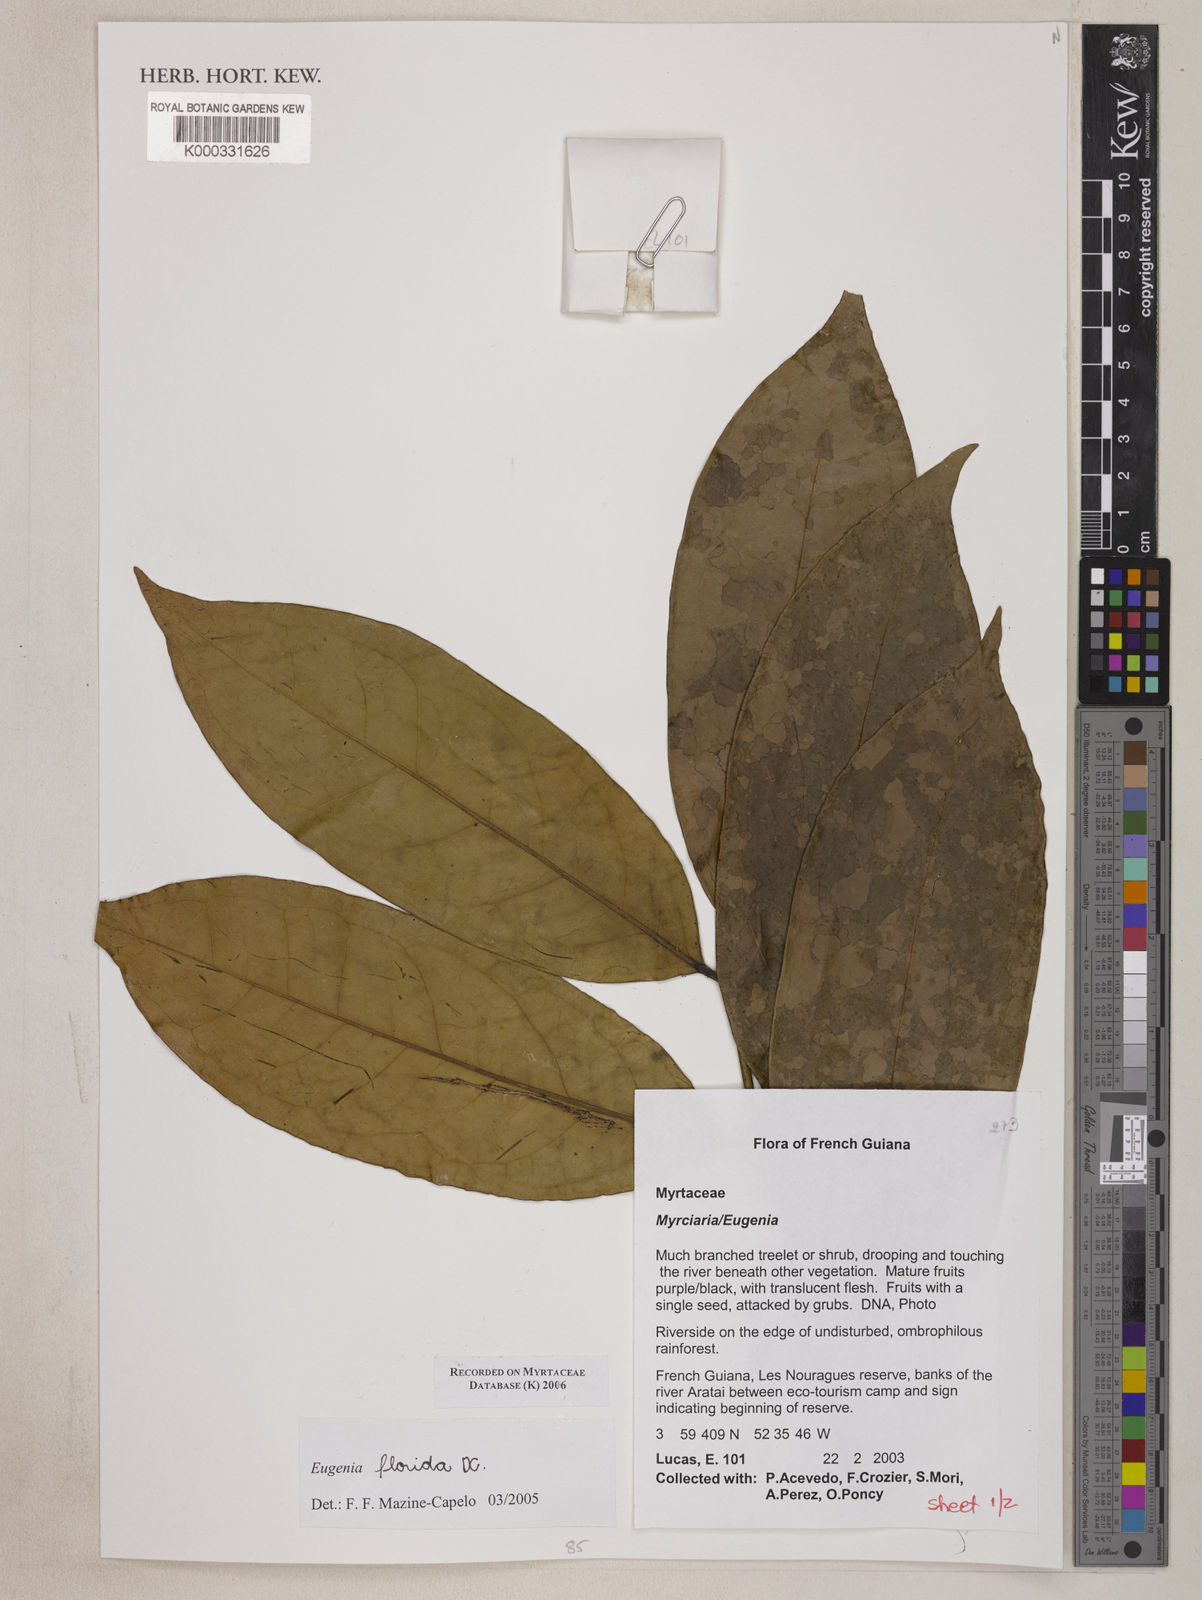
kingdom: Plantae
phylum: Tracheophyta
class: Magnoliopsida
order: Myrtales
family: Myrtaceae
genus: Eugenia
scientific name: Eugenia florida
